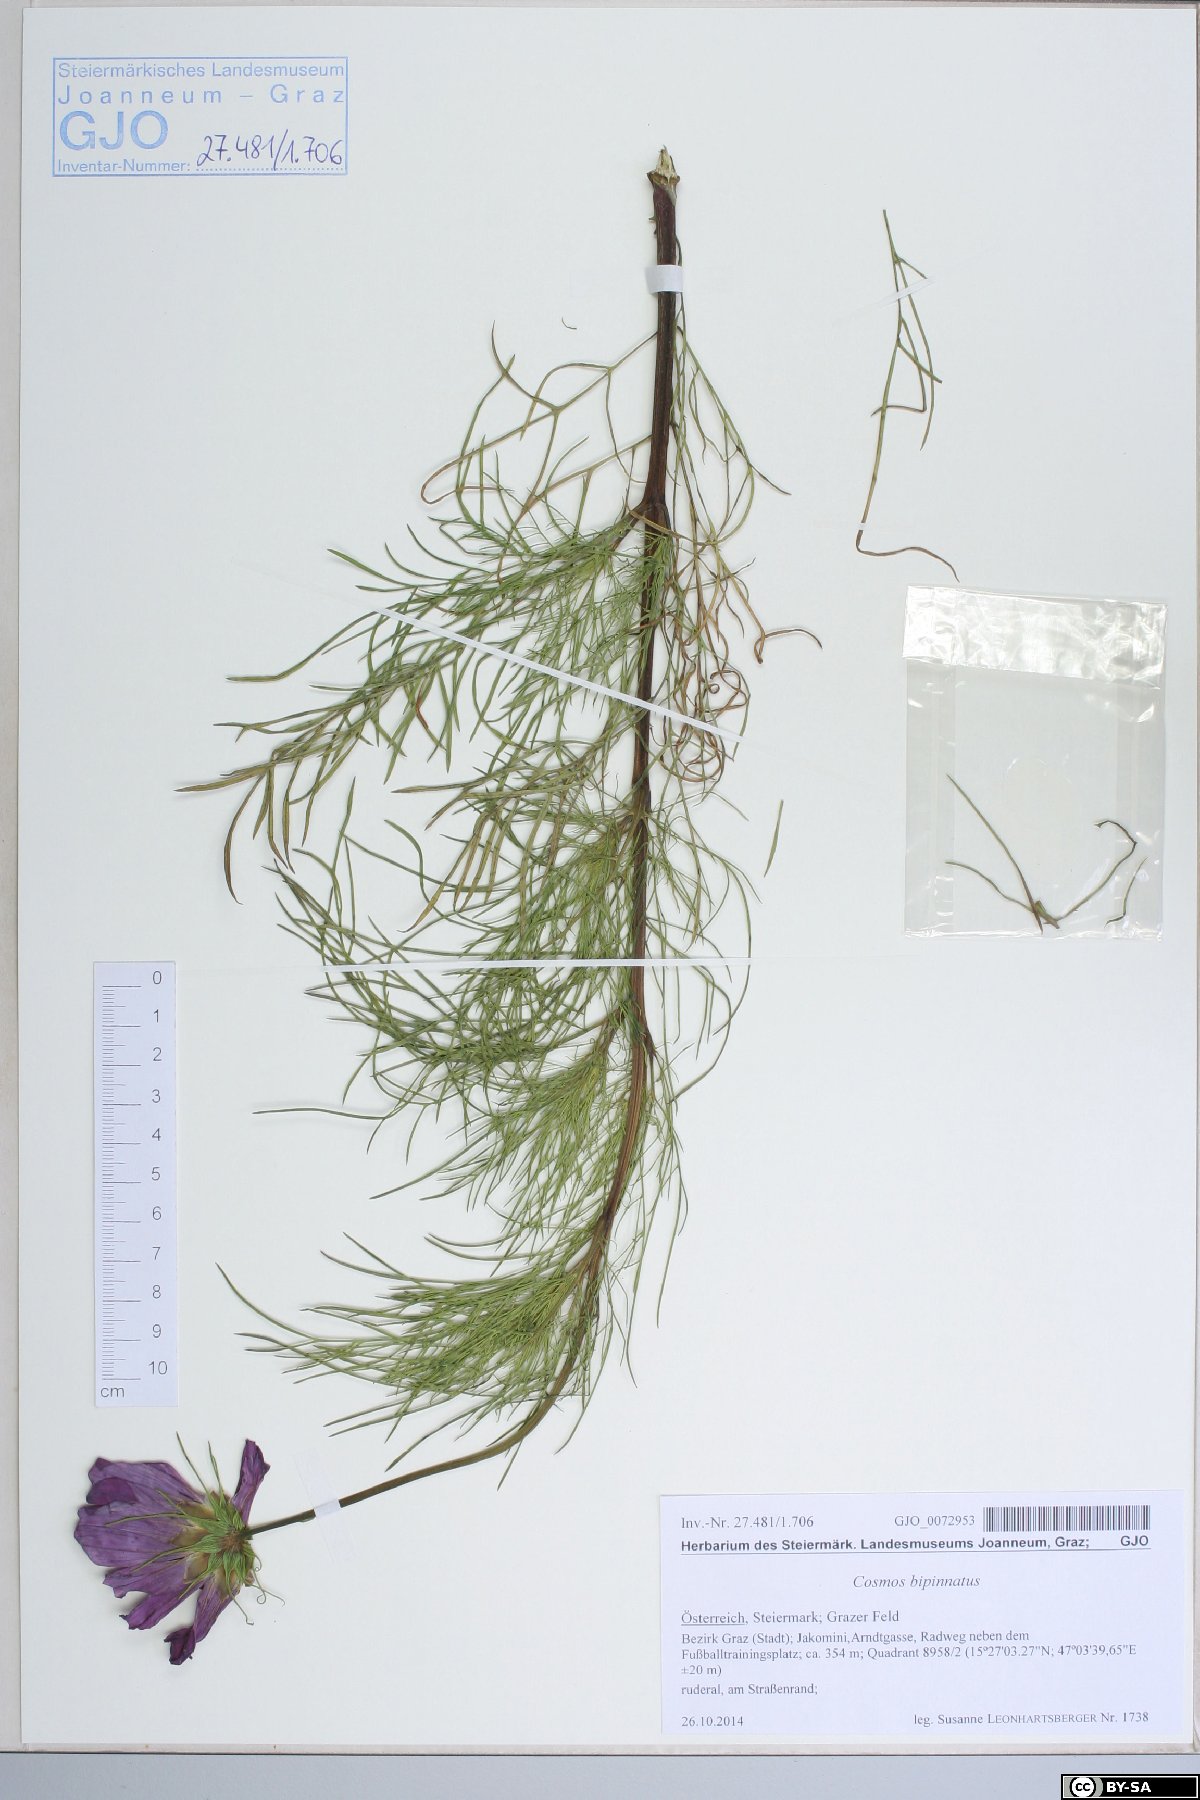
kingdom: Plantae
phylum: Tracheophyta
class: Magnoliopsida
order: Asterales
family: Asteraceae
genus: Cosmos
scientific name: Cosmos bipinnatus
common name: Garden cosmos
